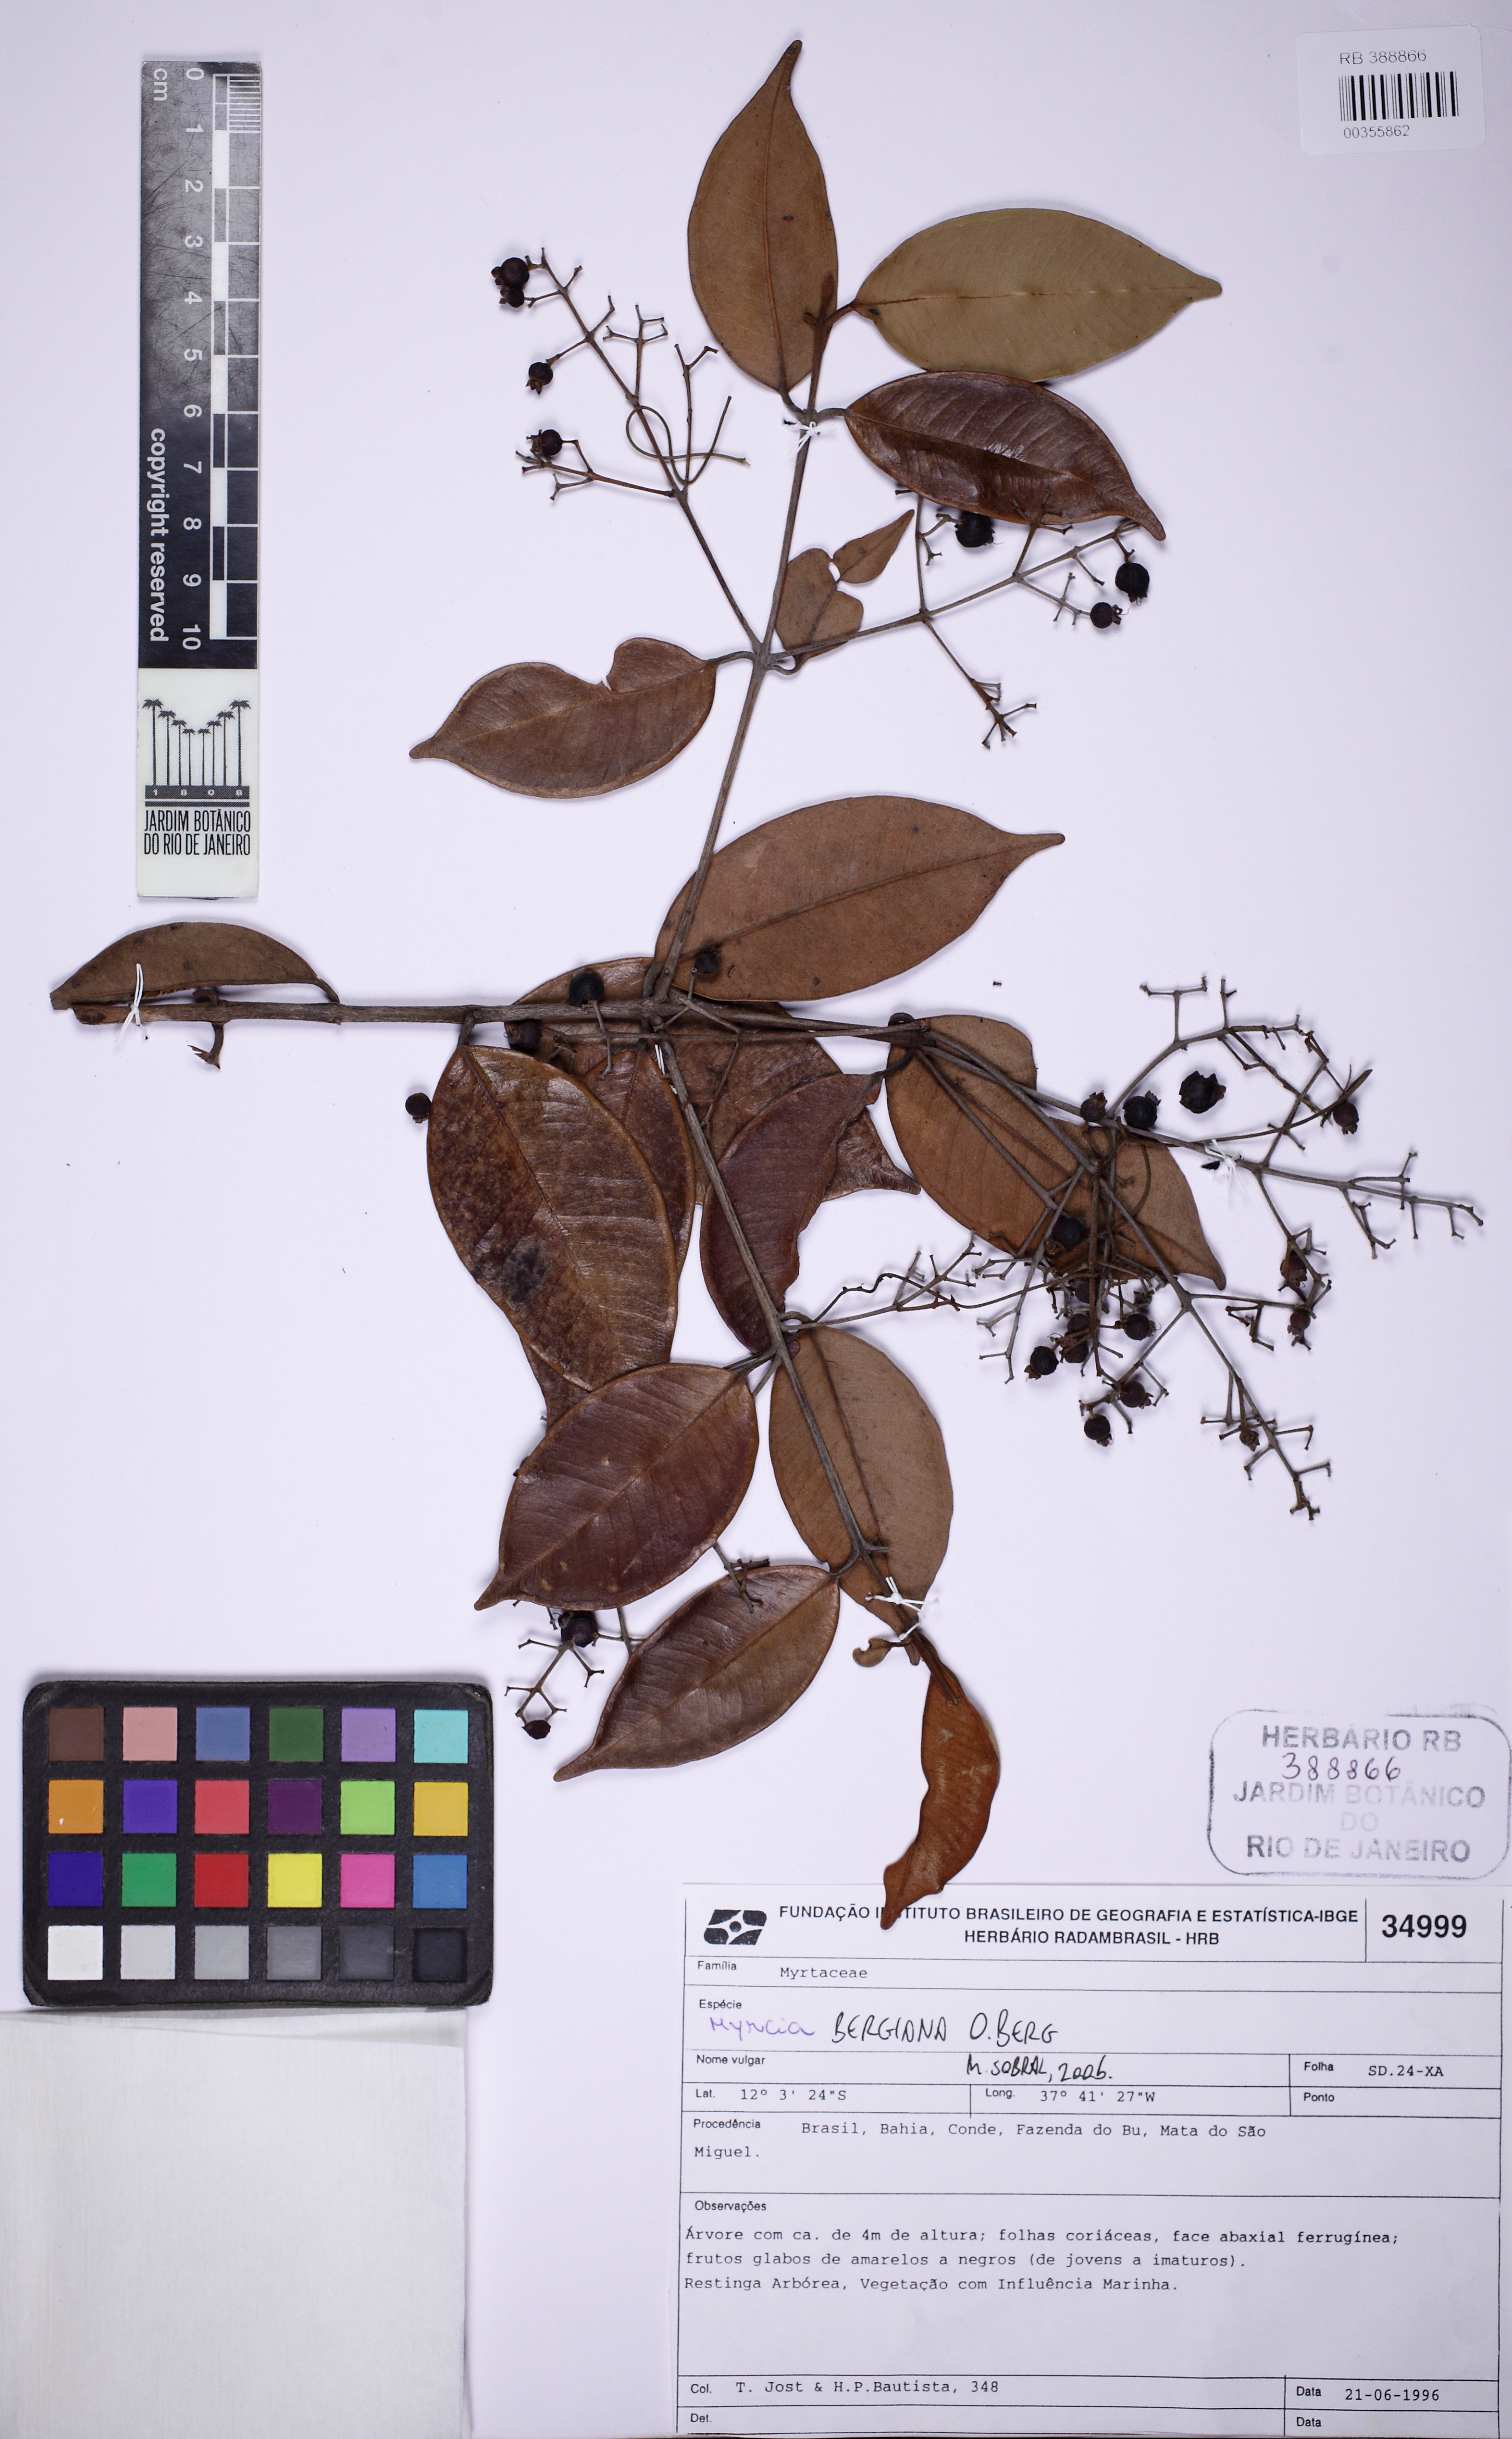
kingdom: Plantae
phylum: Tracheophyta
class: Magnoliopsida
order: Myrtales
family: Myrtaceae
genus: Myrcia
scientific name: Myrcia bergiana
